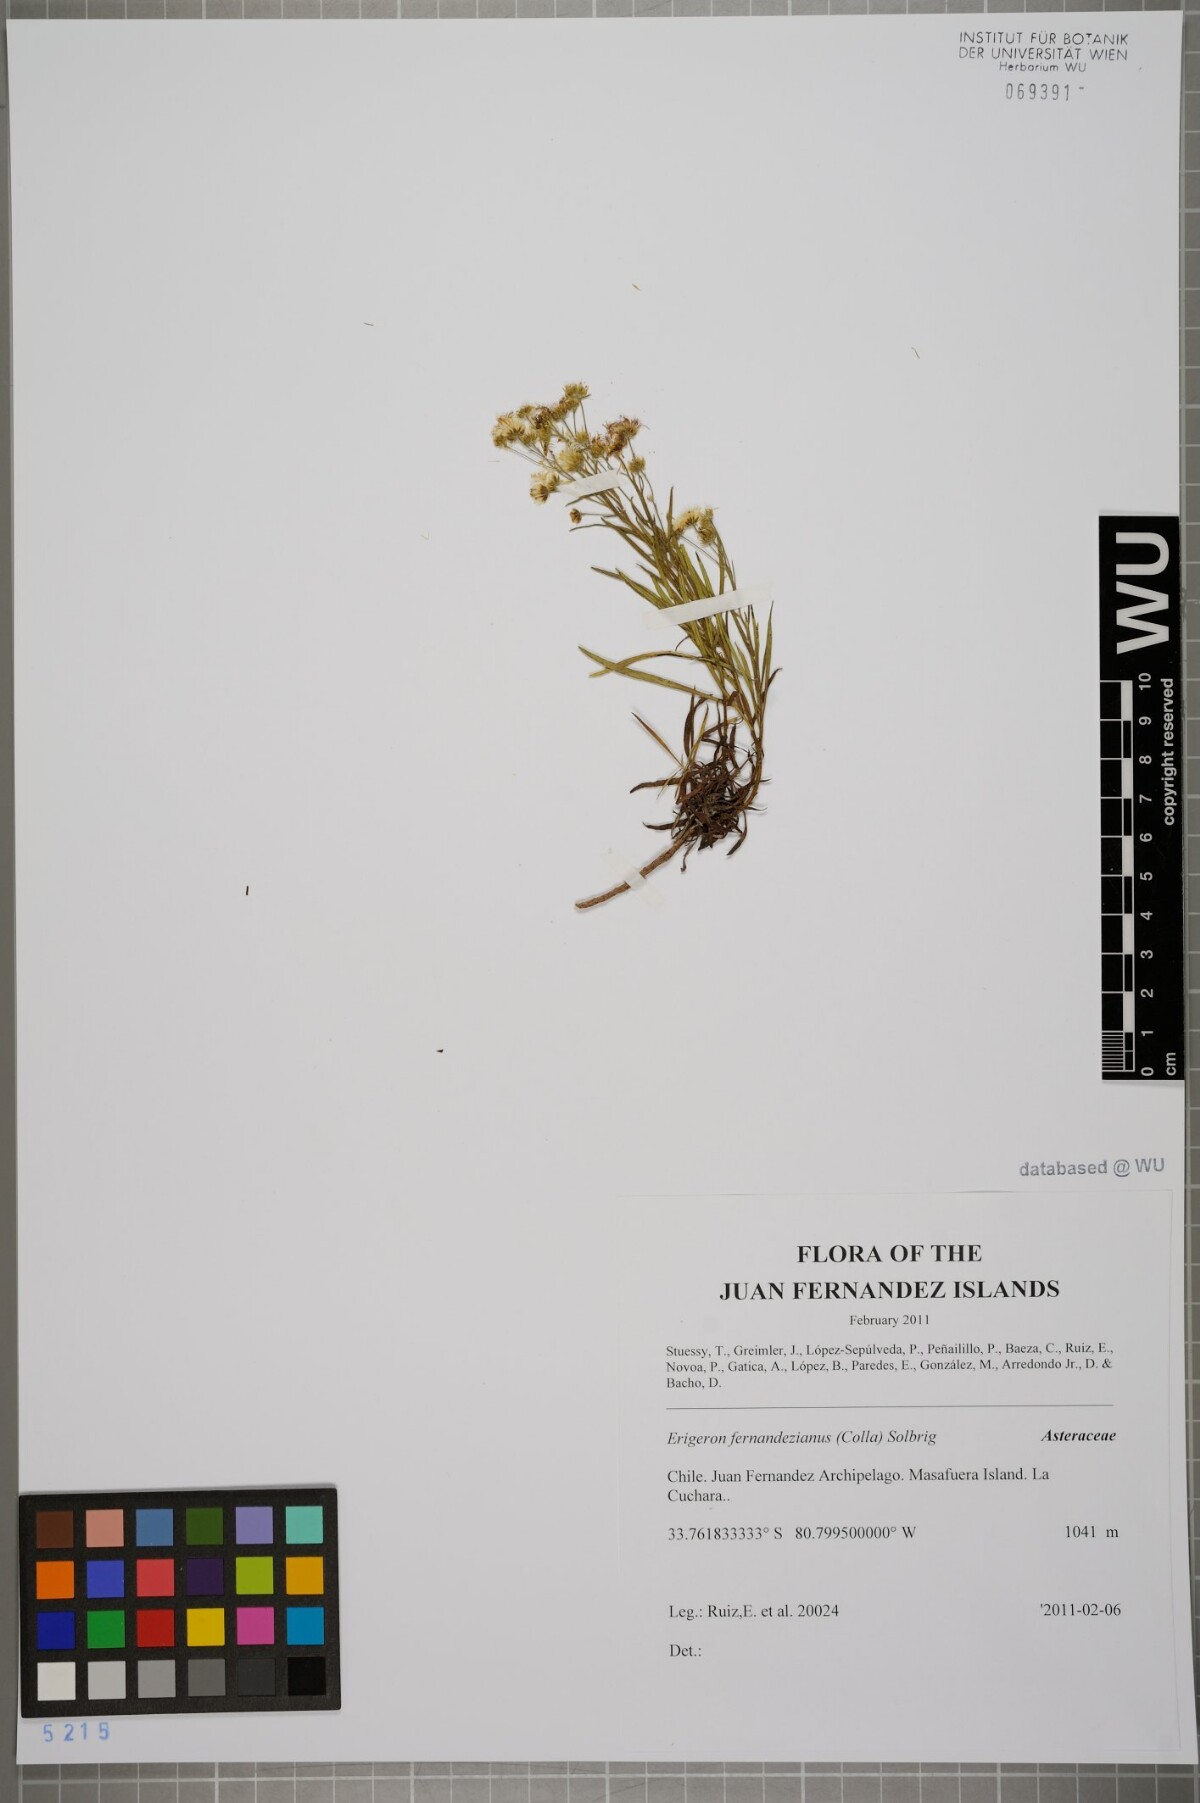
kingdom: Plantae
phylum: Tracheophyta
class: Magnoliopsida
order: Asterales
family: Asteraceae
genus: Erigeron
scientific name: Erigeron fernandezianus
